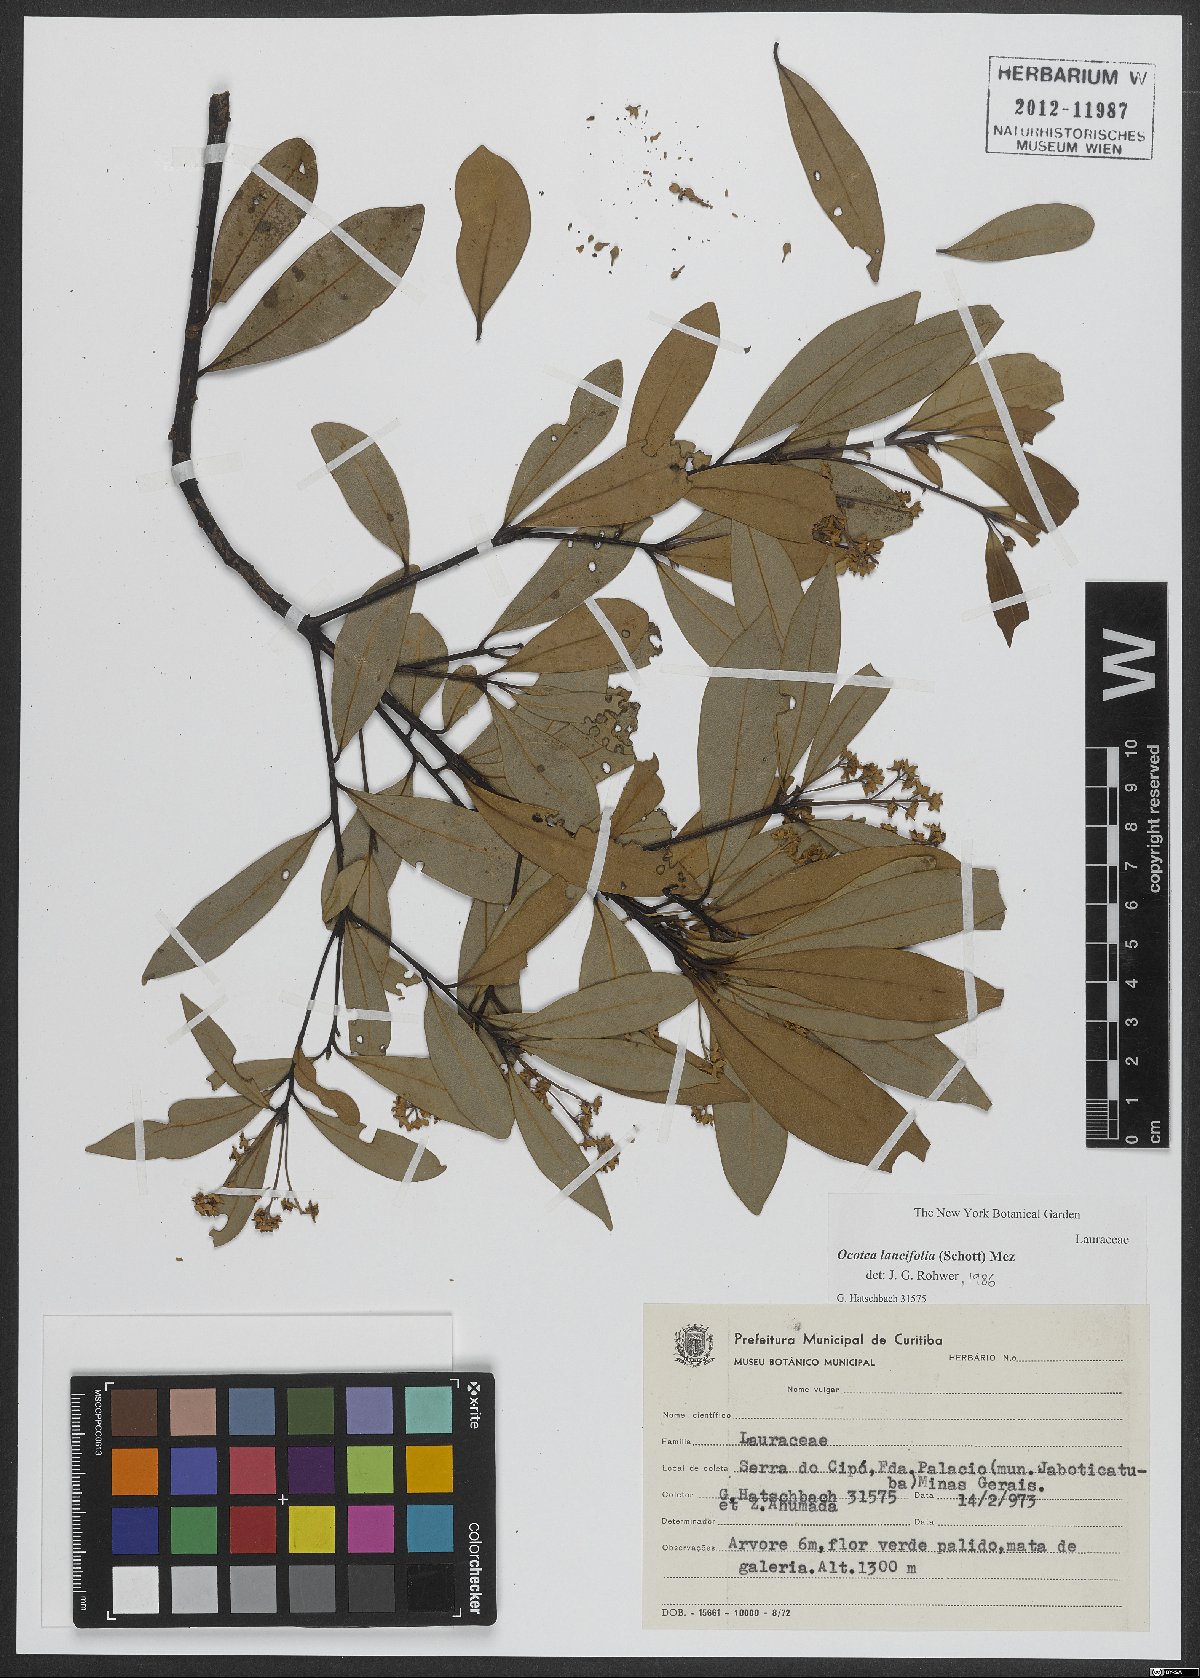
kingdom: Plantae
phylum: Tracheophyta
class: Magnoliopsida
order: Laurales
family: Lauraceae
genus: Ocotea
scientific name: Ocotea lancifolia
